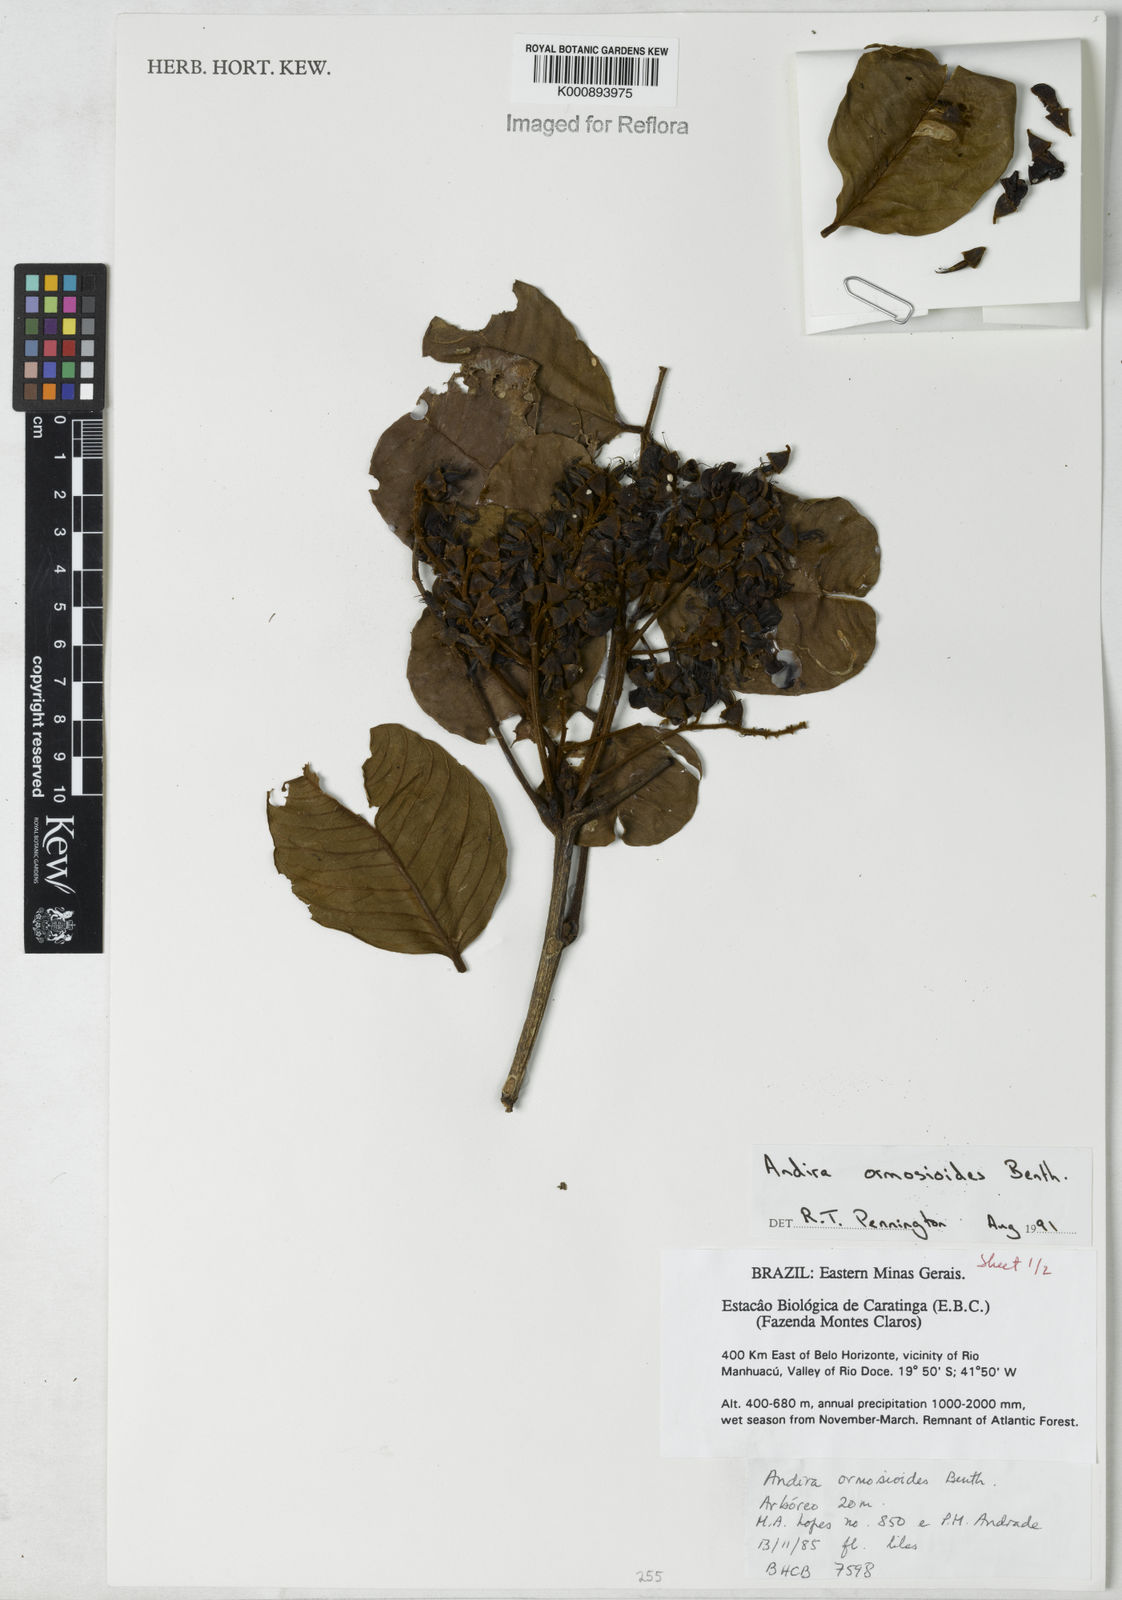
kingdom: Plantae
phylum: Tracheophyta
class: Magnoliopsida
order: Fabales
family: Fabaceae
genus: Andira
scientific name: Andira ormosioides
